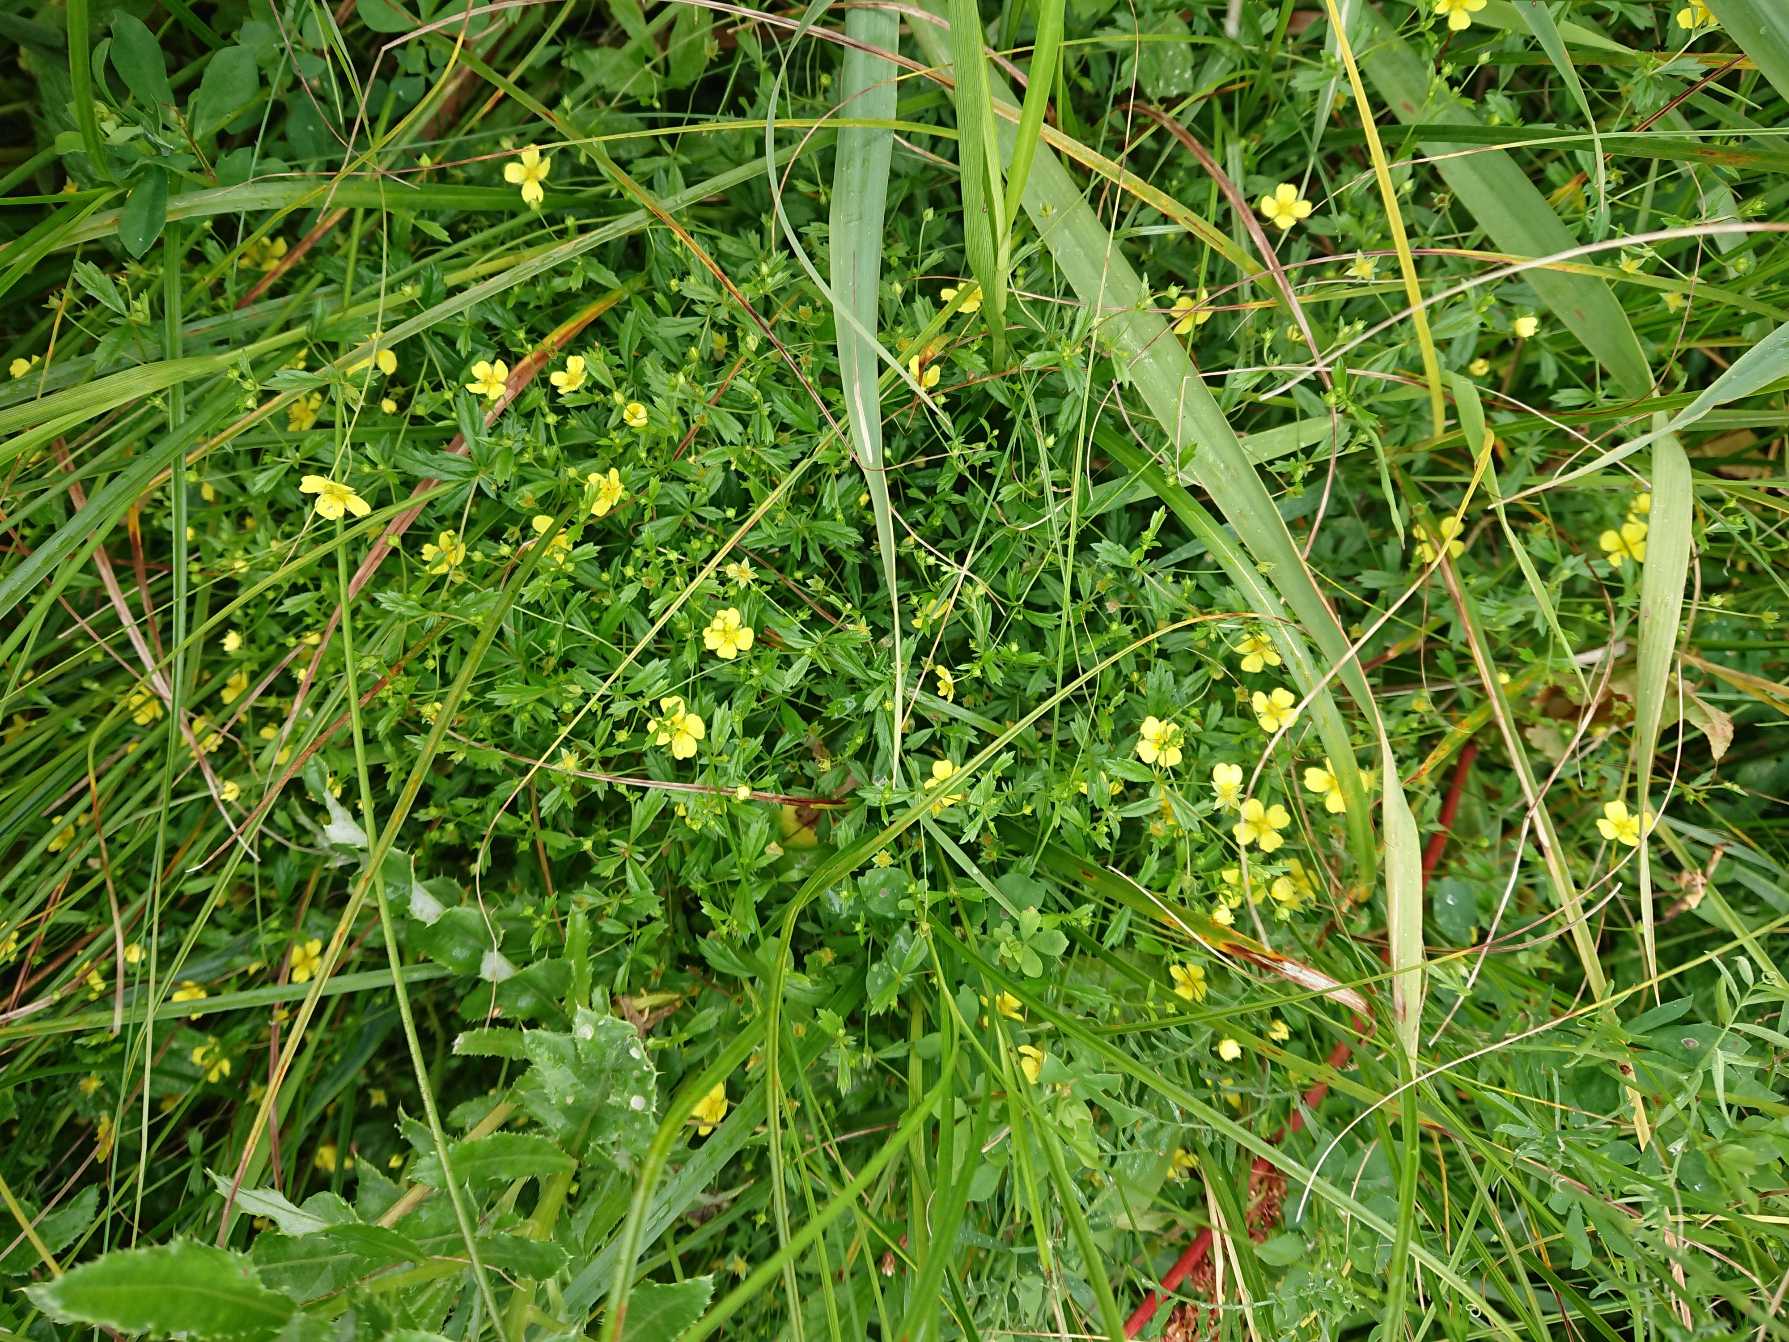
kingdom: Plantae
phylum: Tracheophyta
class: Magnoliopsida
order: Rosales
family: Rosaceae
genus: Potentilla
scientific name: Potentilla erecta
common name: Tormentil
